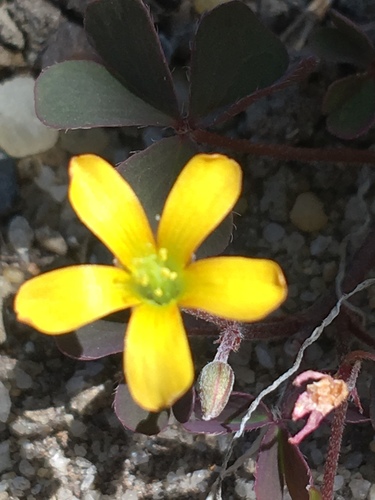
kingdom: Plantae
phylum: Tracheophyta
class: Magnoliopsida
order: Oxalidales
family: Oxalidaceae
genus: Oxalis
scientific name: Oxalis corniculata
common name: Procumbent yellow-sorrel
